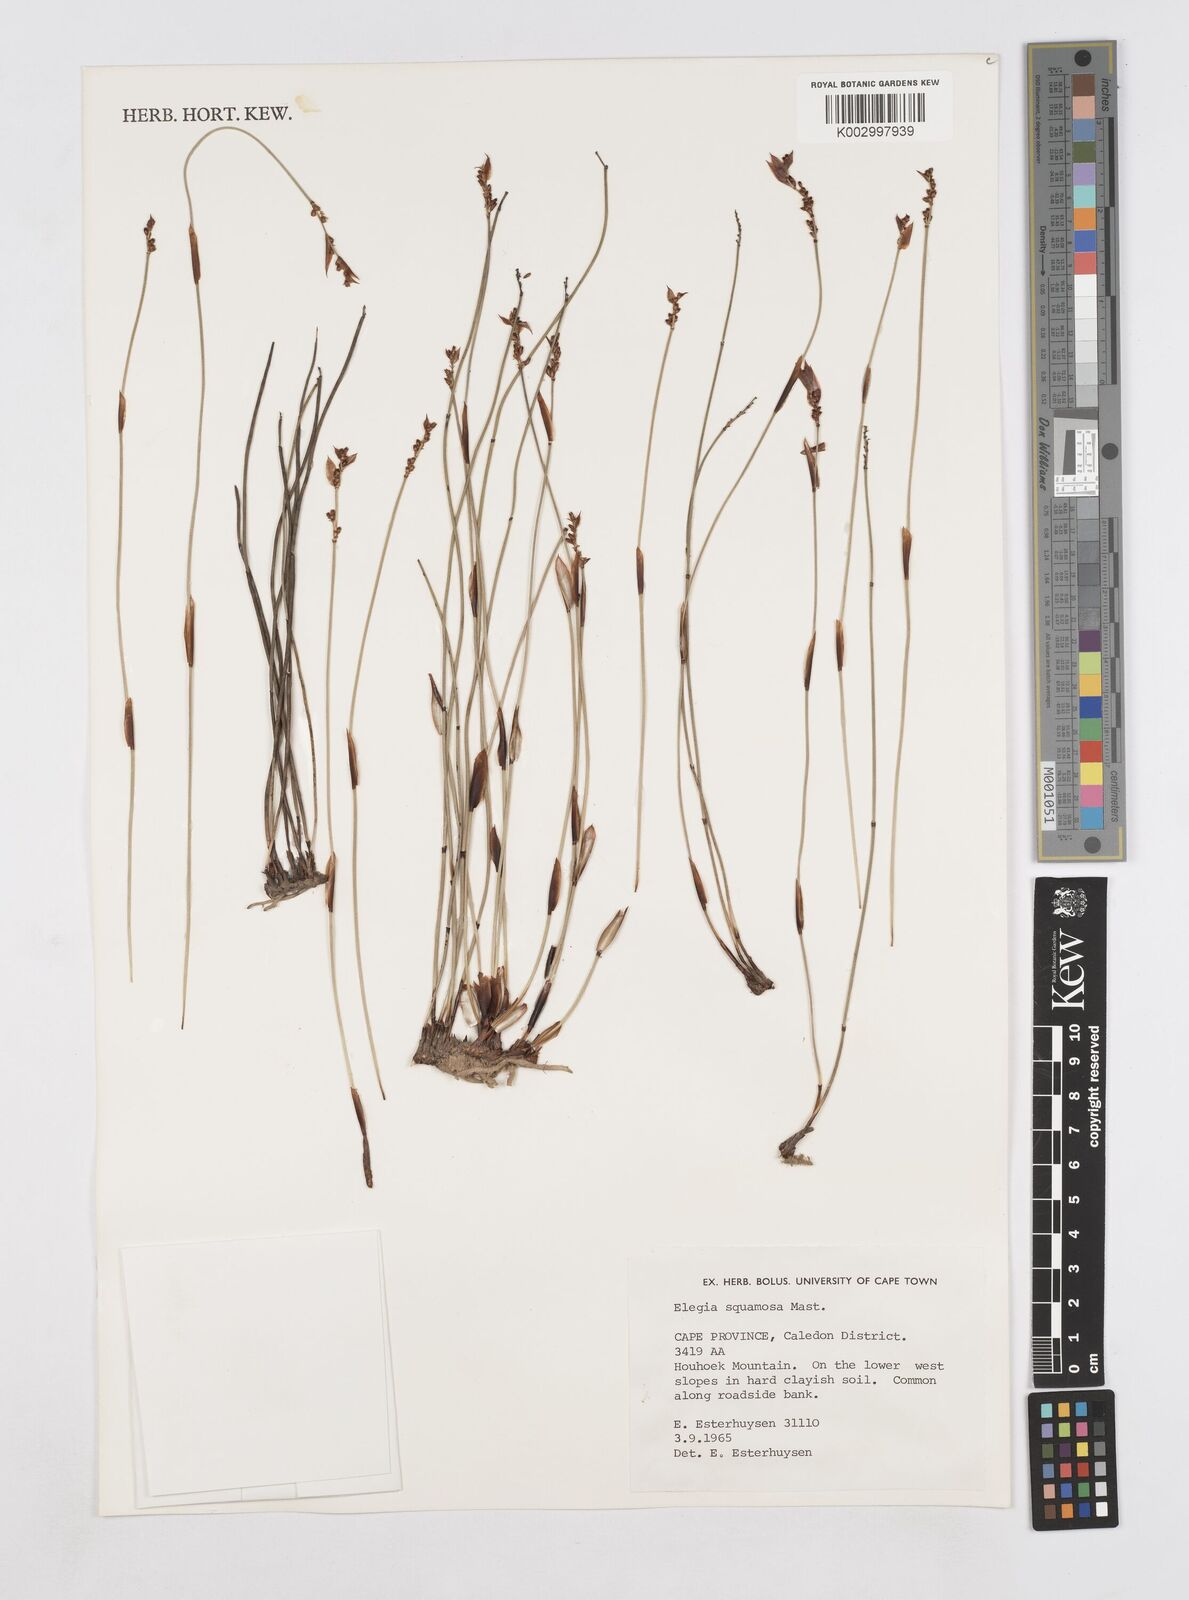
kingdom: Plantae
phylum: Tracheophyta
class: Liliopsida
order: Poales
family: Restionaceae
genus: Elegia
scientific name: Elegia squamosa
